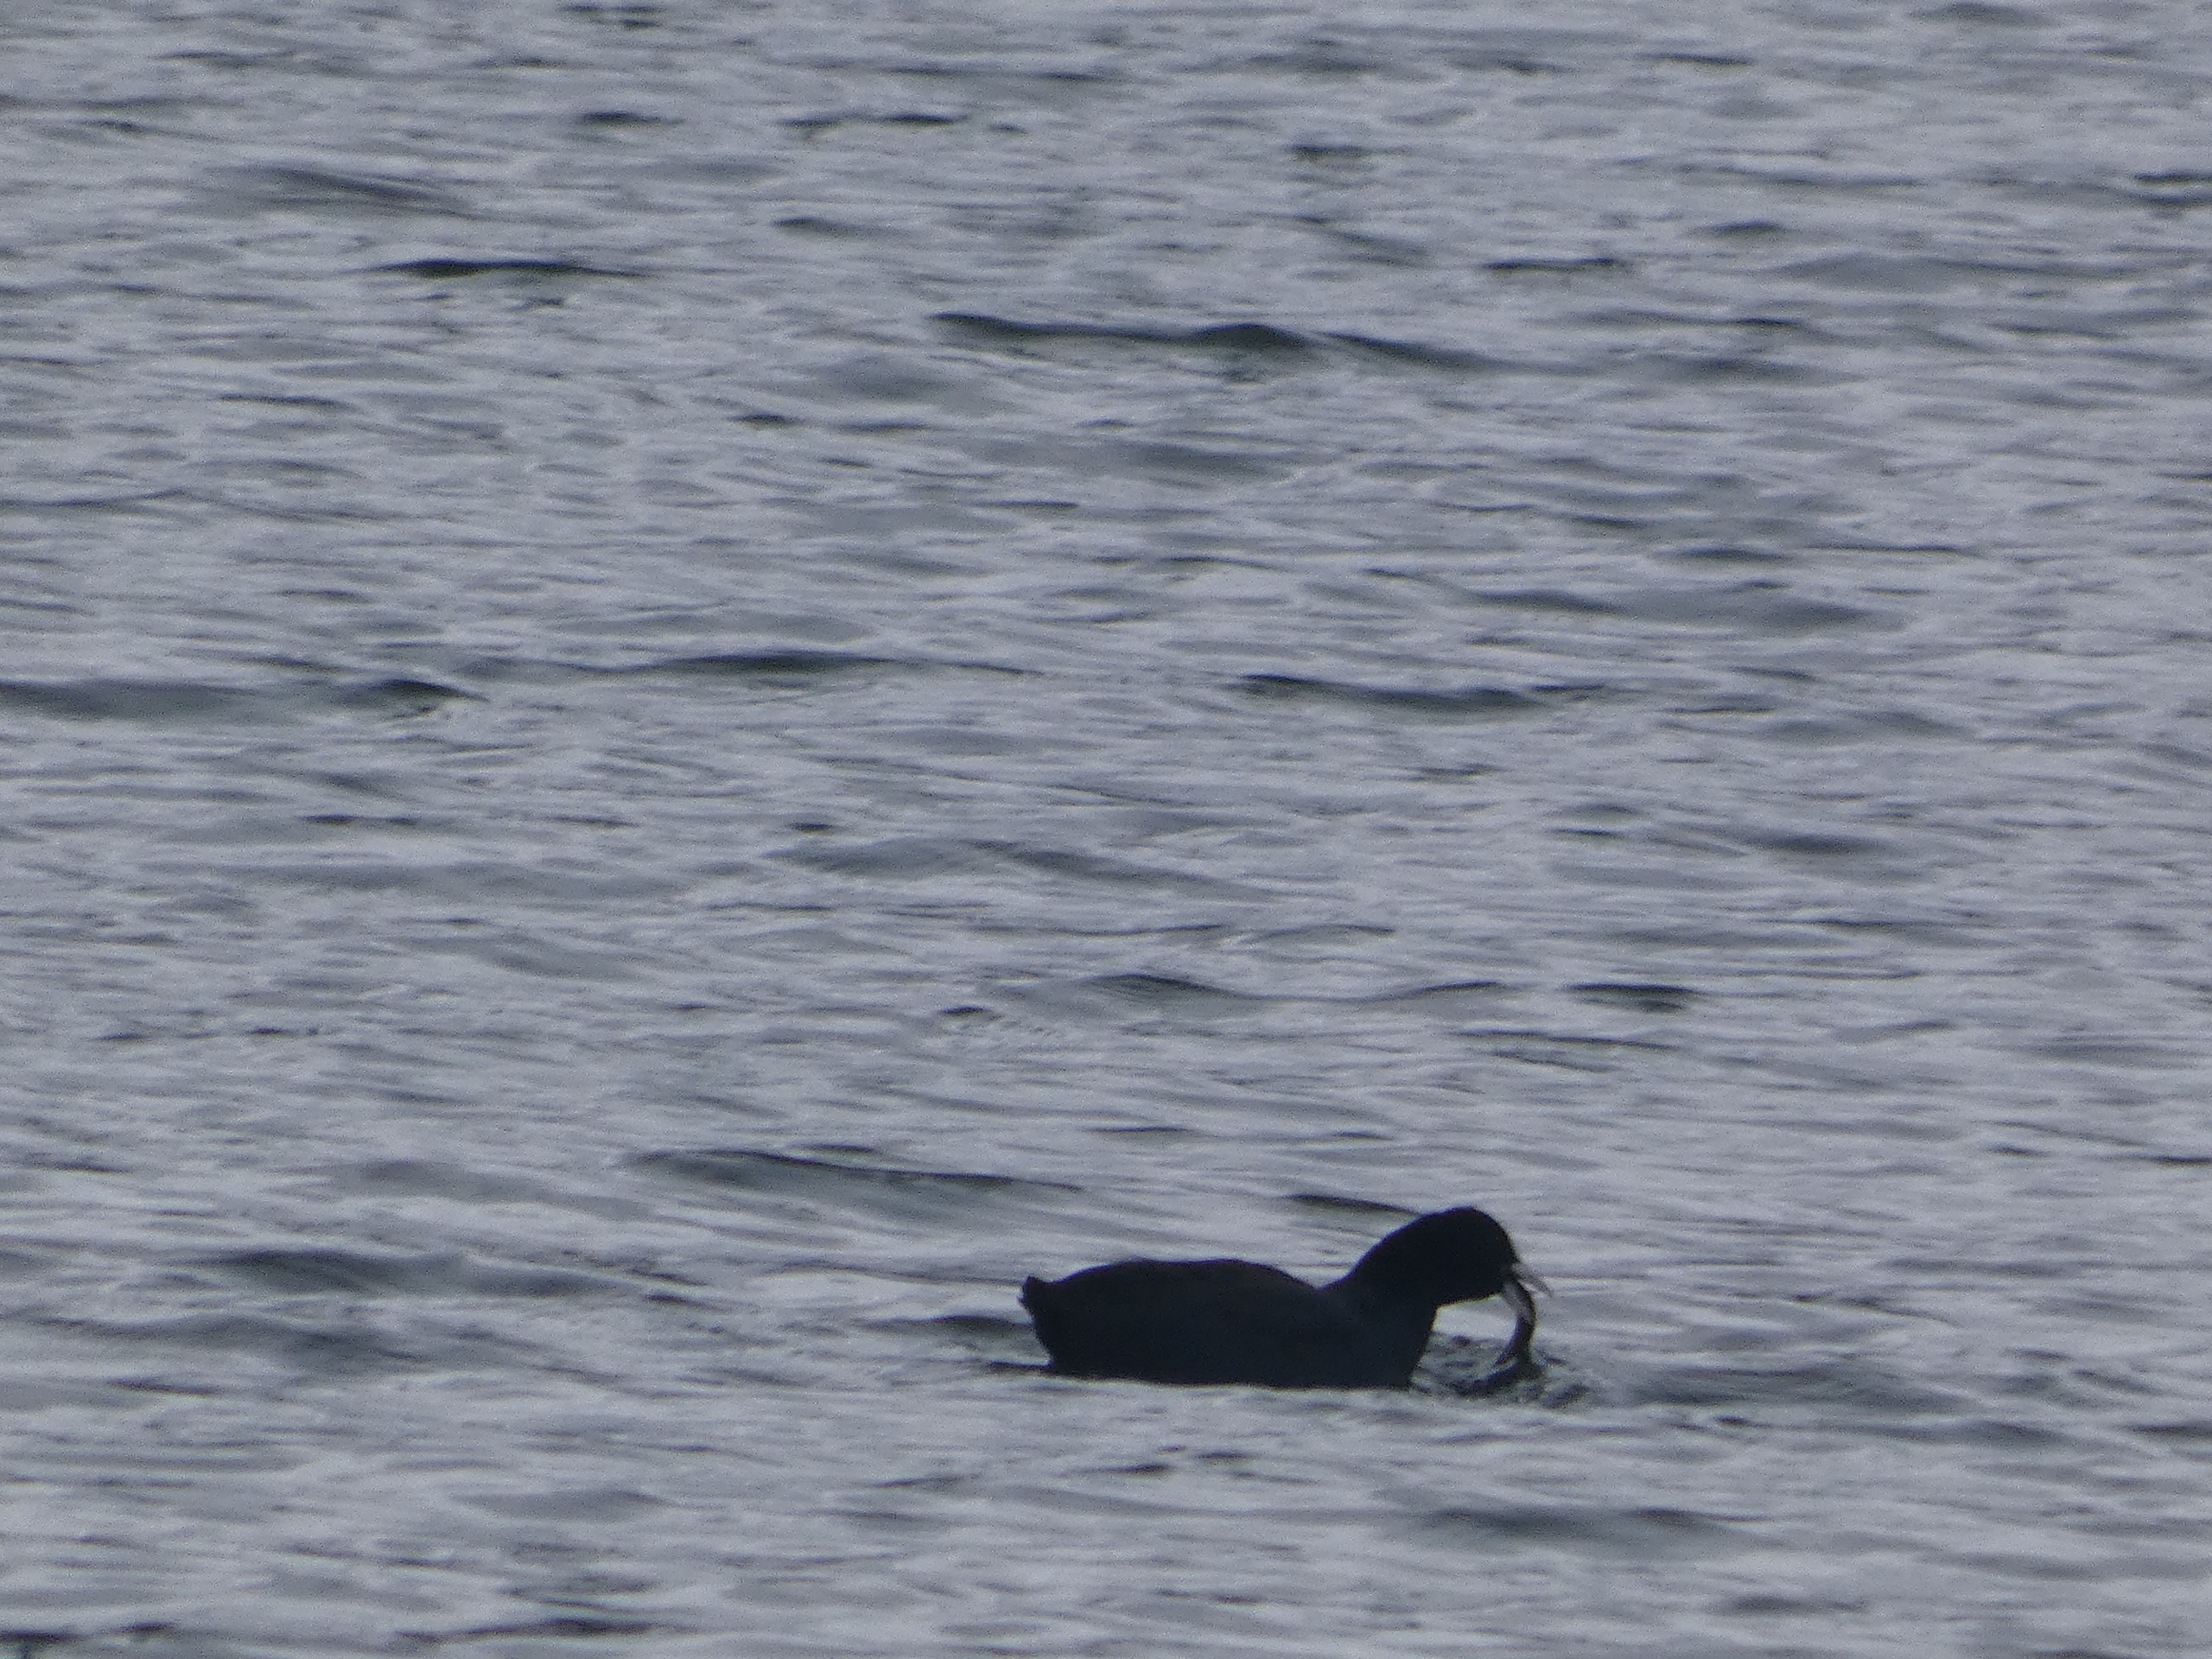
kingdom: Animalia
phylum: Chordata
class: Aves
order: Gruiformes
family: Rallidae
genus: Fulica
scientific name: Fulica atra
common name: Blishøne
